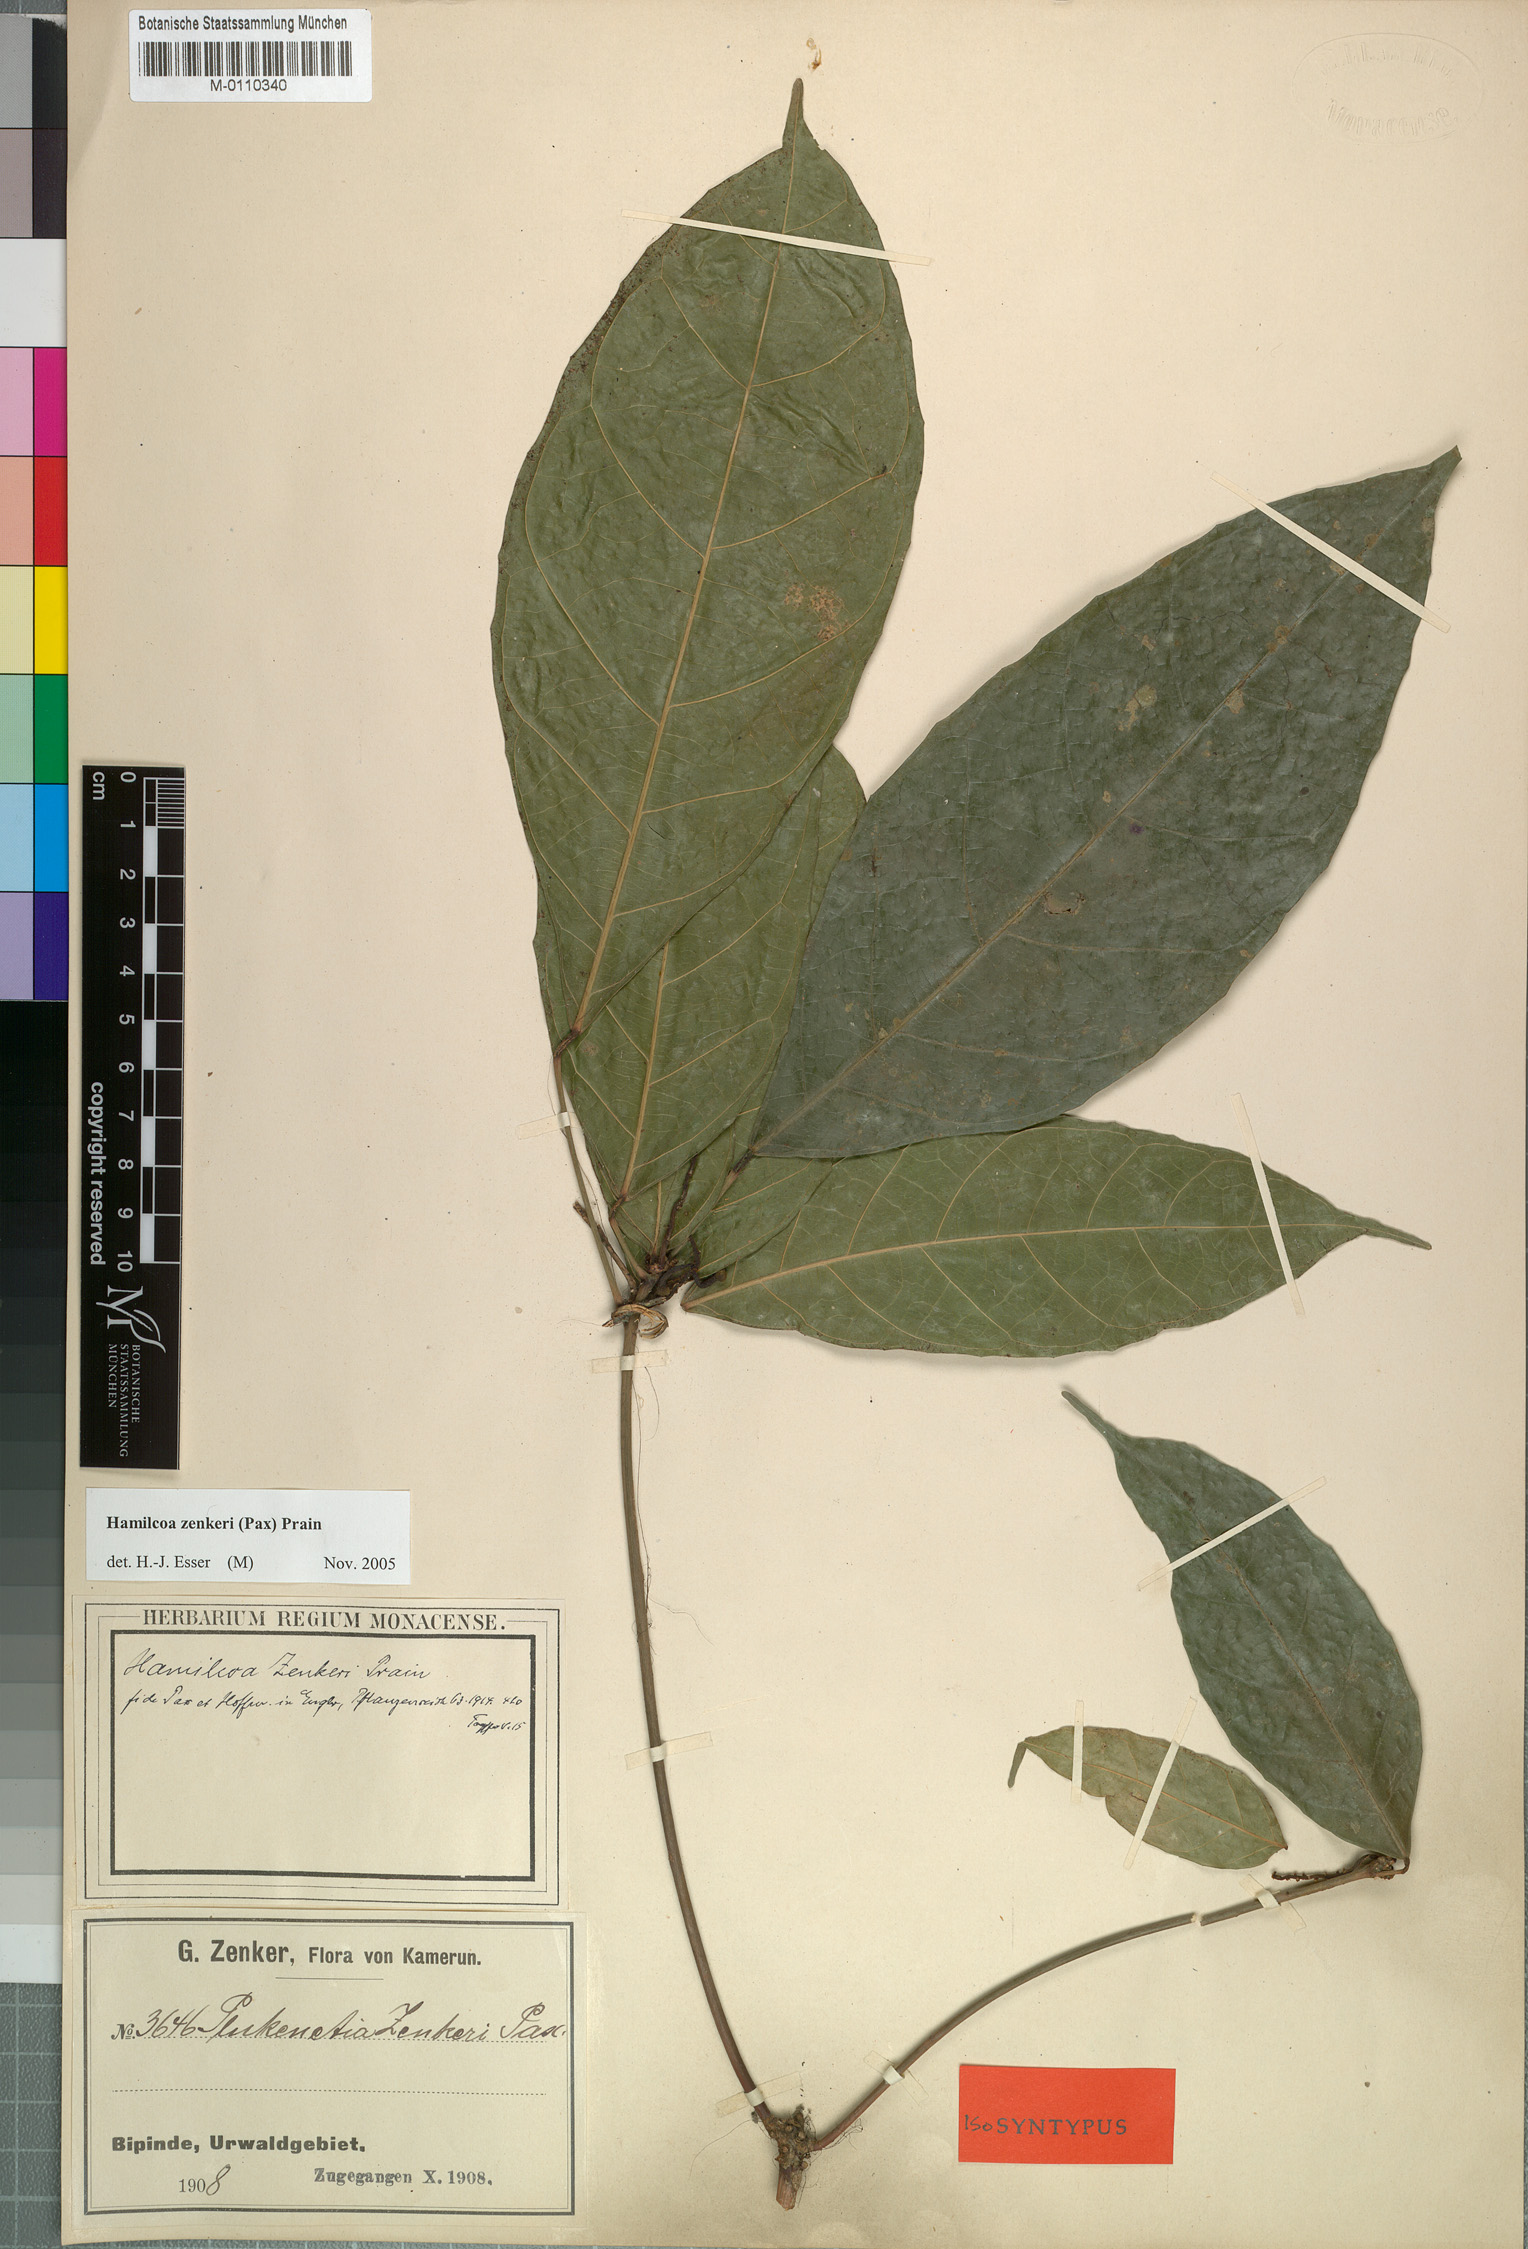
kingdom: Plantae
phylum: Tracheophyta
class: Magnoliopsida
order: Malpighiales
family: Euphorbiaceae
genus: Hamilcoa
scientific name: Hamilcoa zenkeri
